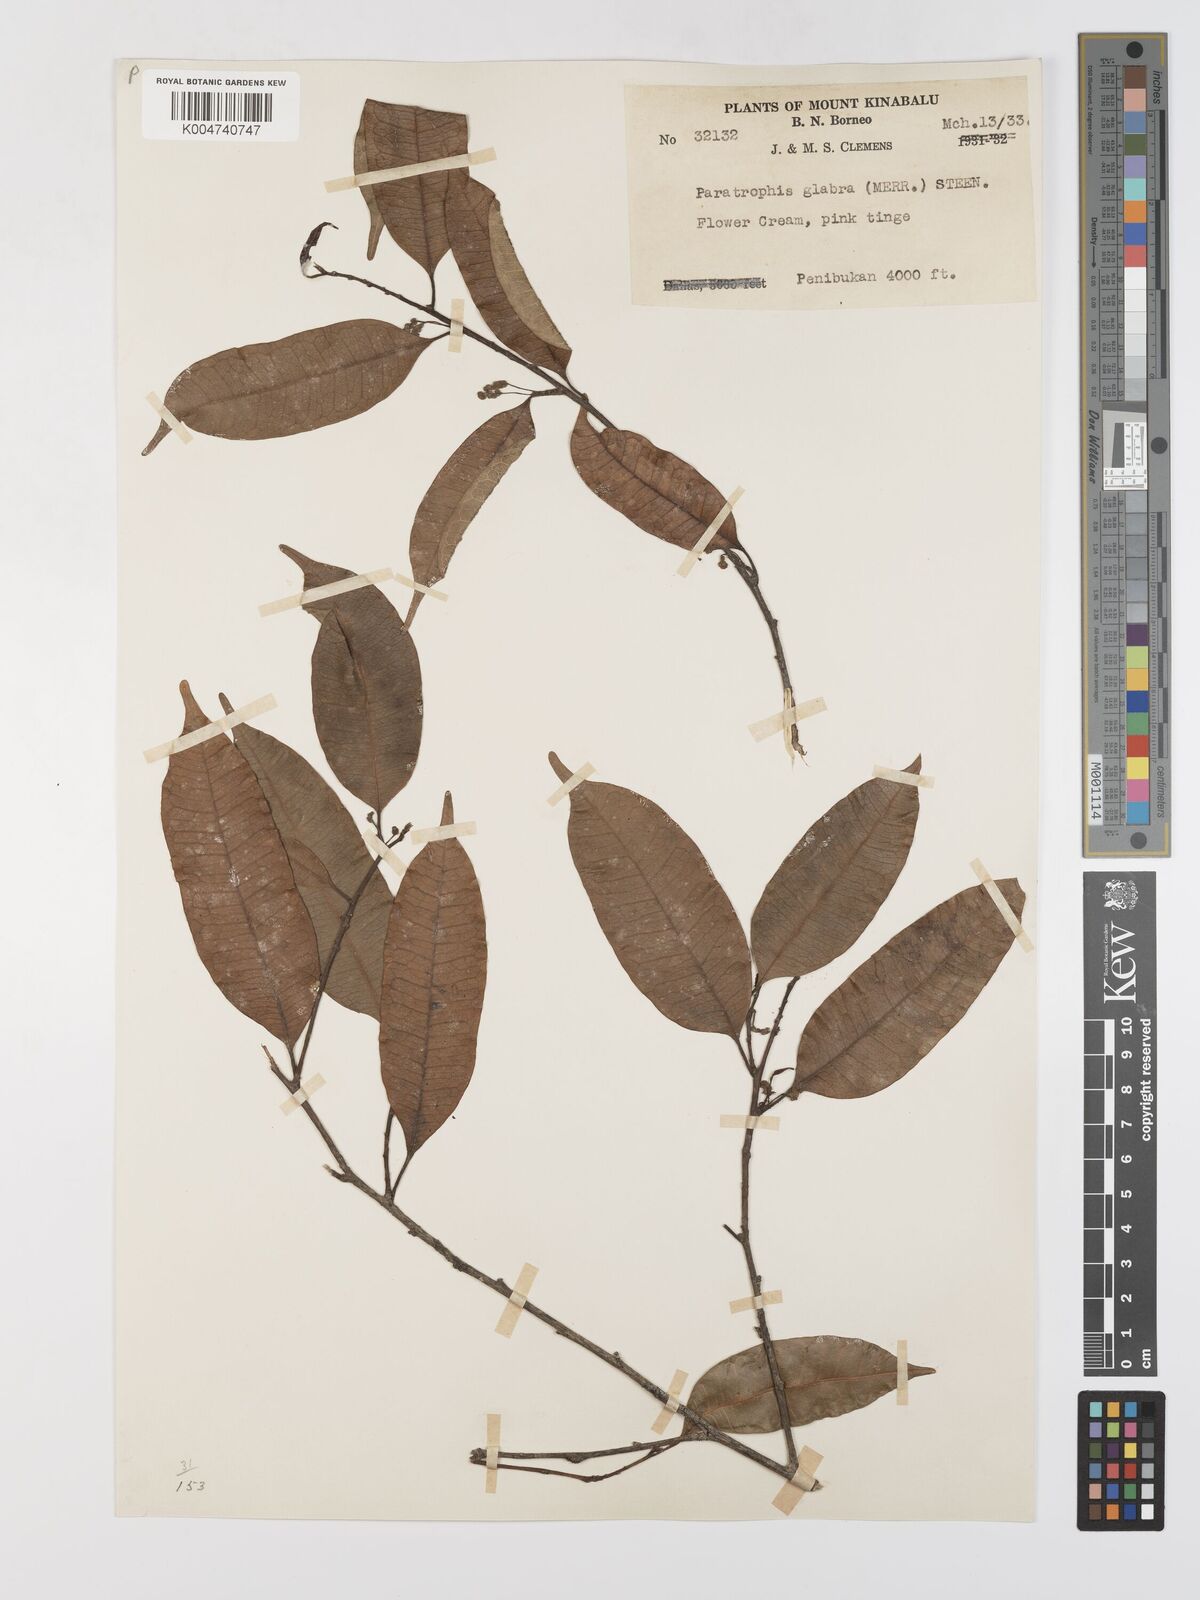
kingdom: Plantae
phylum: Tracheophyta
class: Magnoliopsida
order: Rosales
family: Moraceae
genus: Paratrophis
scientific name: Paratrophis glabra
